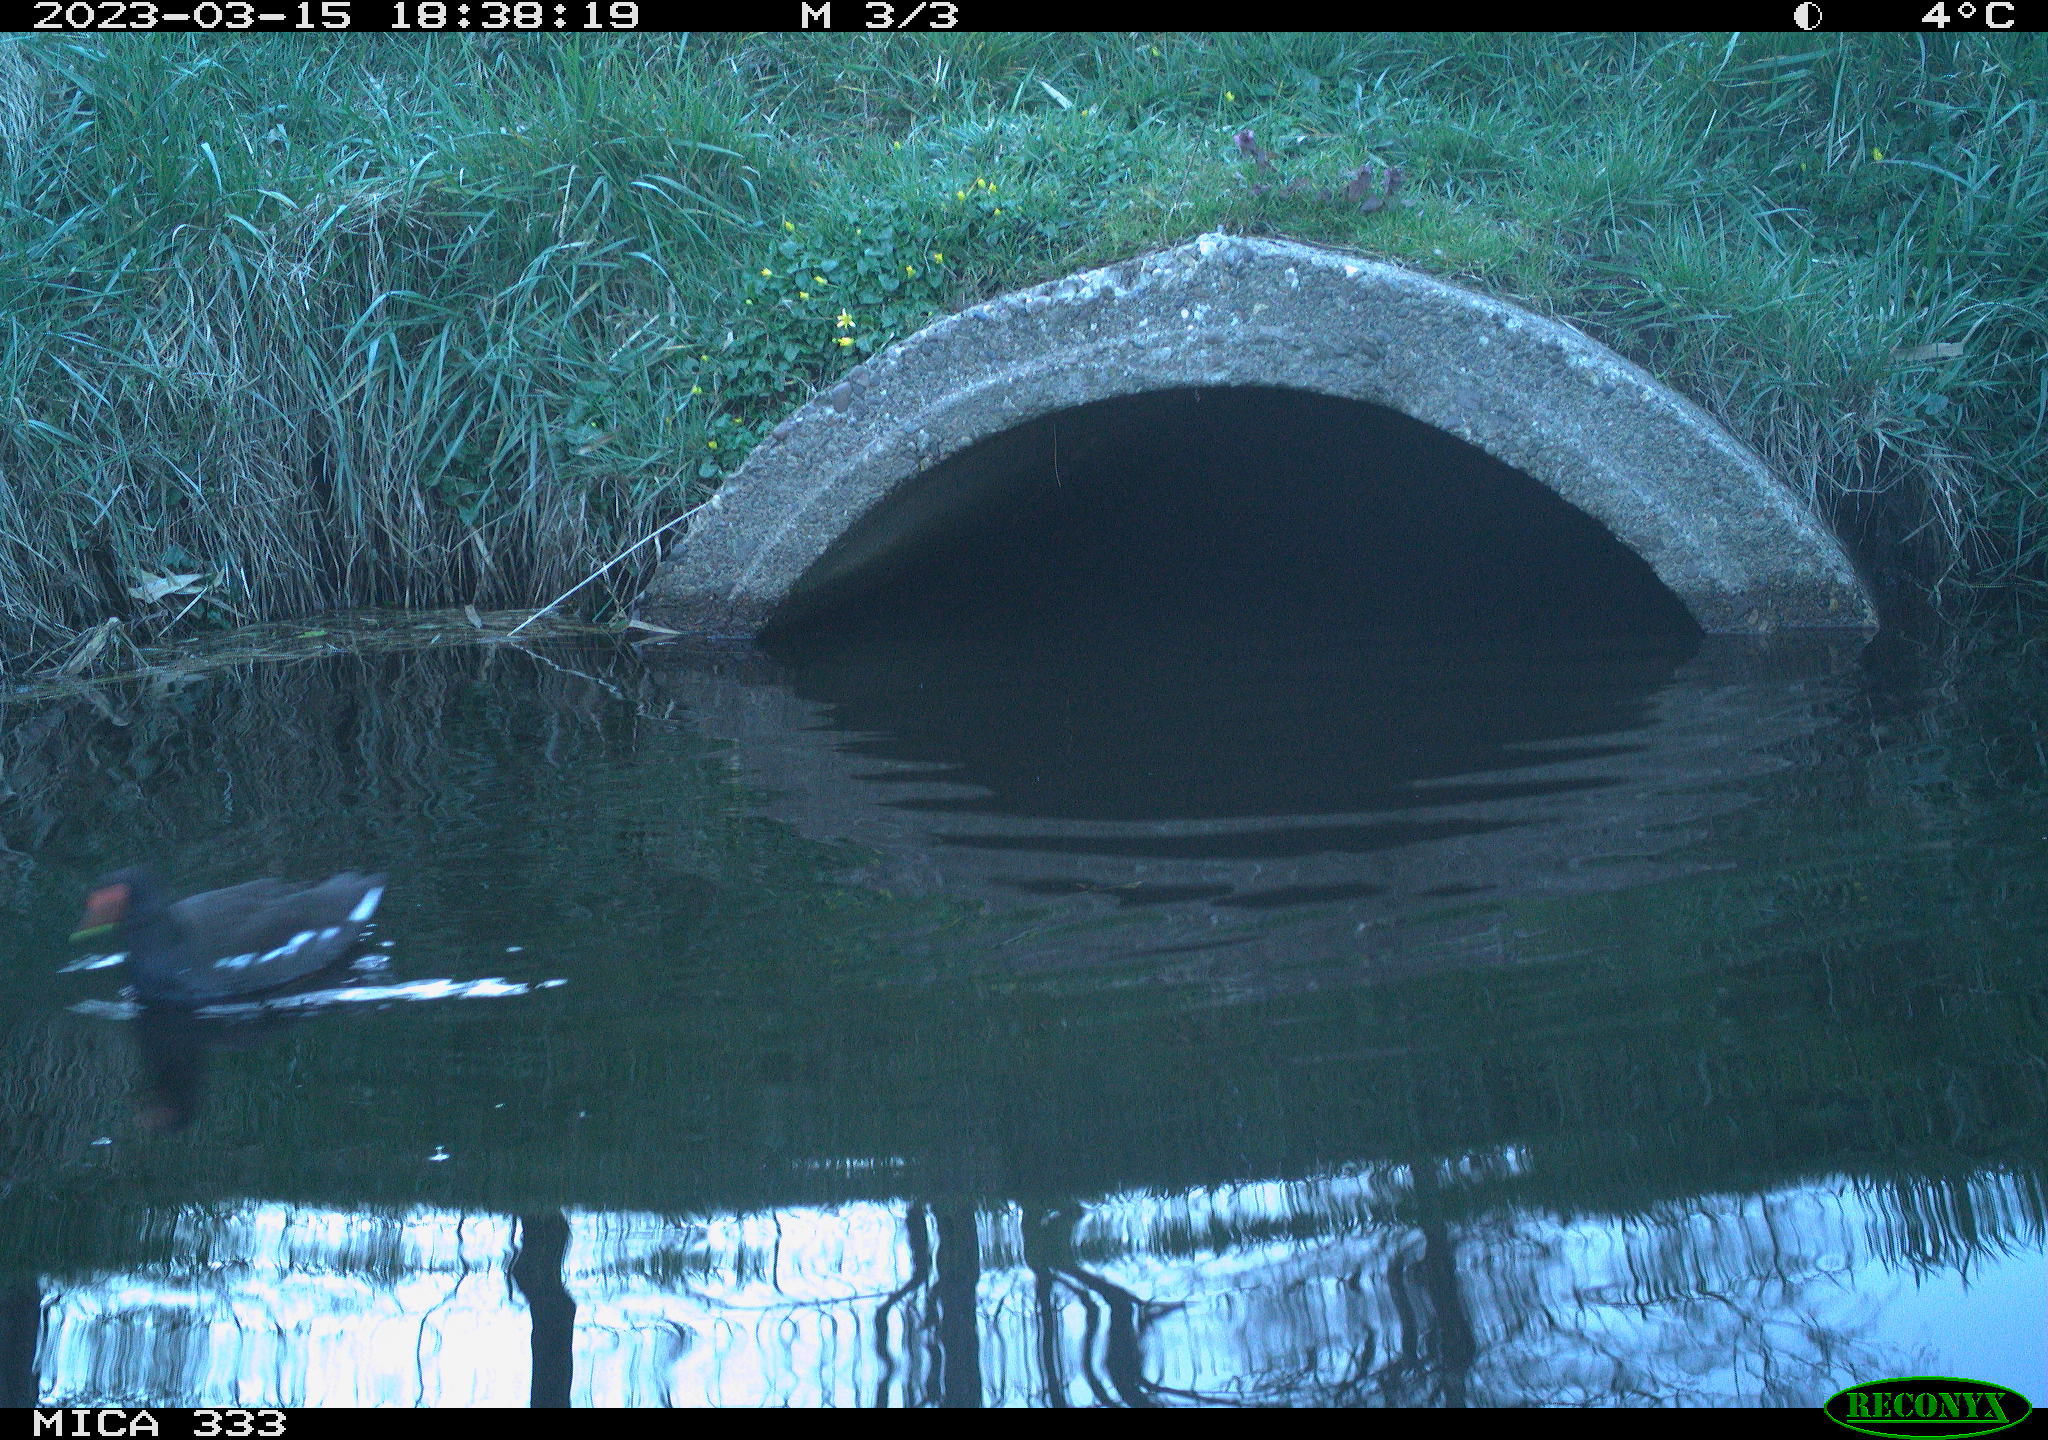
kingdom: Animalia
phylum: Chordata
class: Aves
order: Gruiformes
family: Rallidae
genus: Gallinula
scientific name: Gallinula chloropus
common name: Common moorhen
